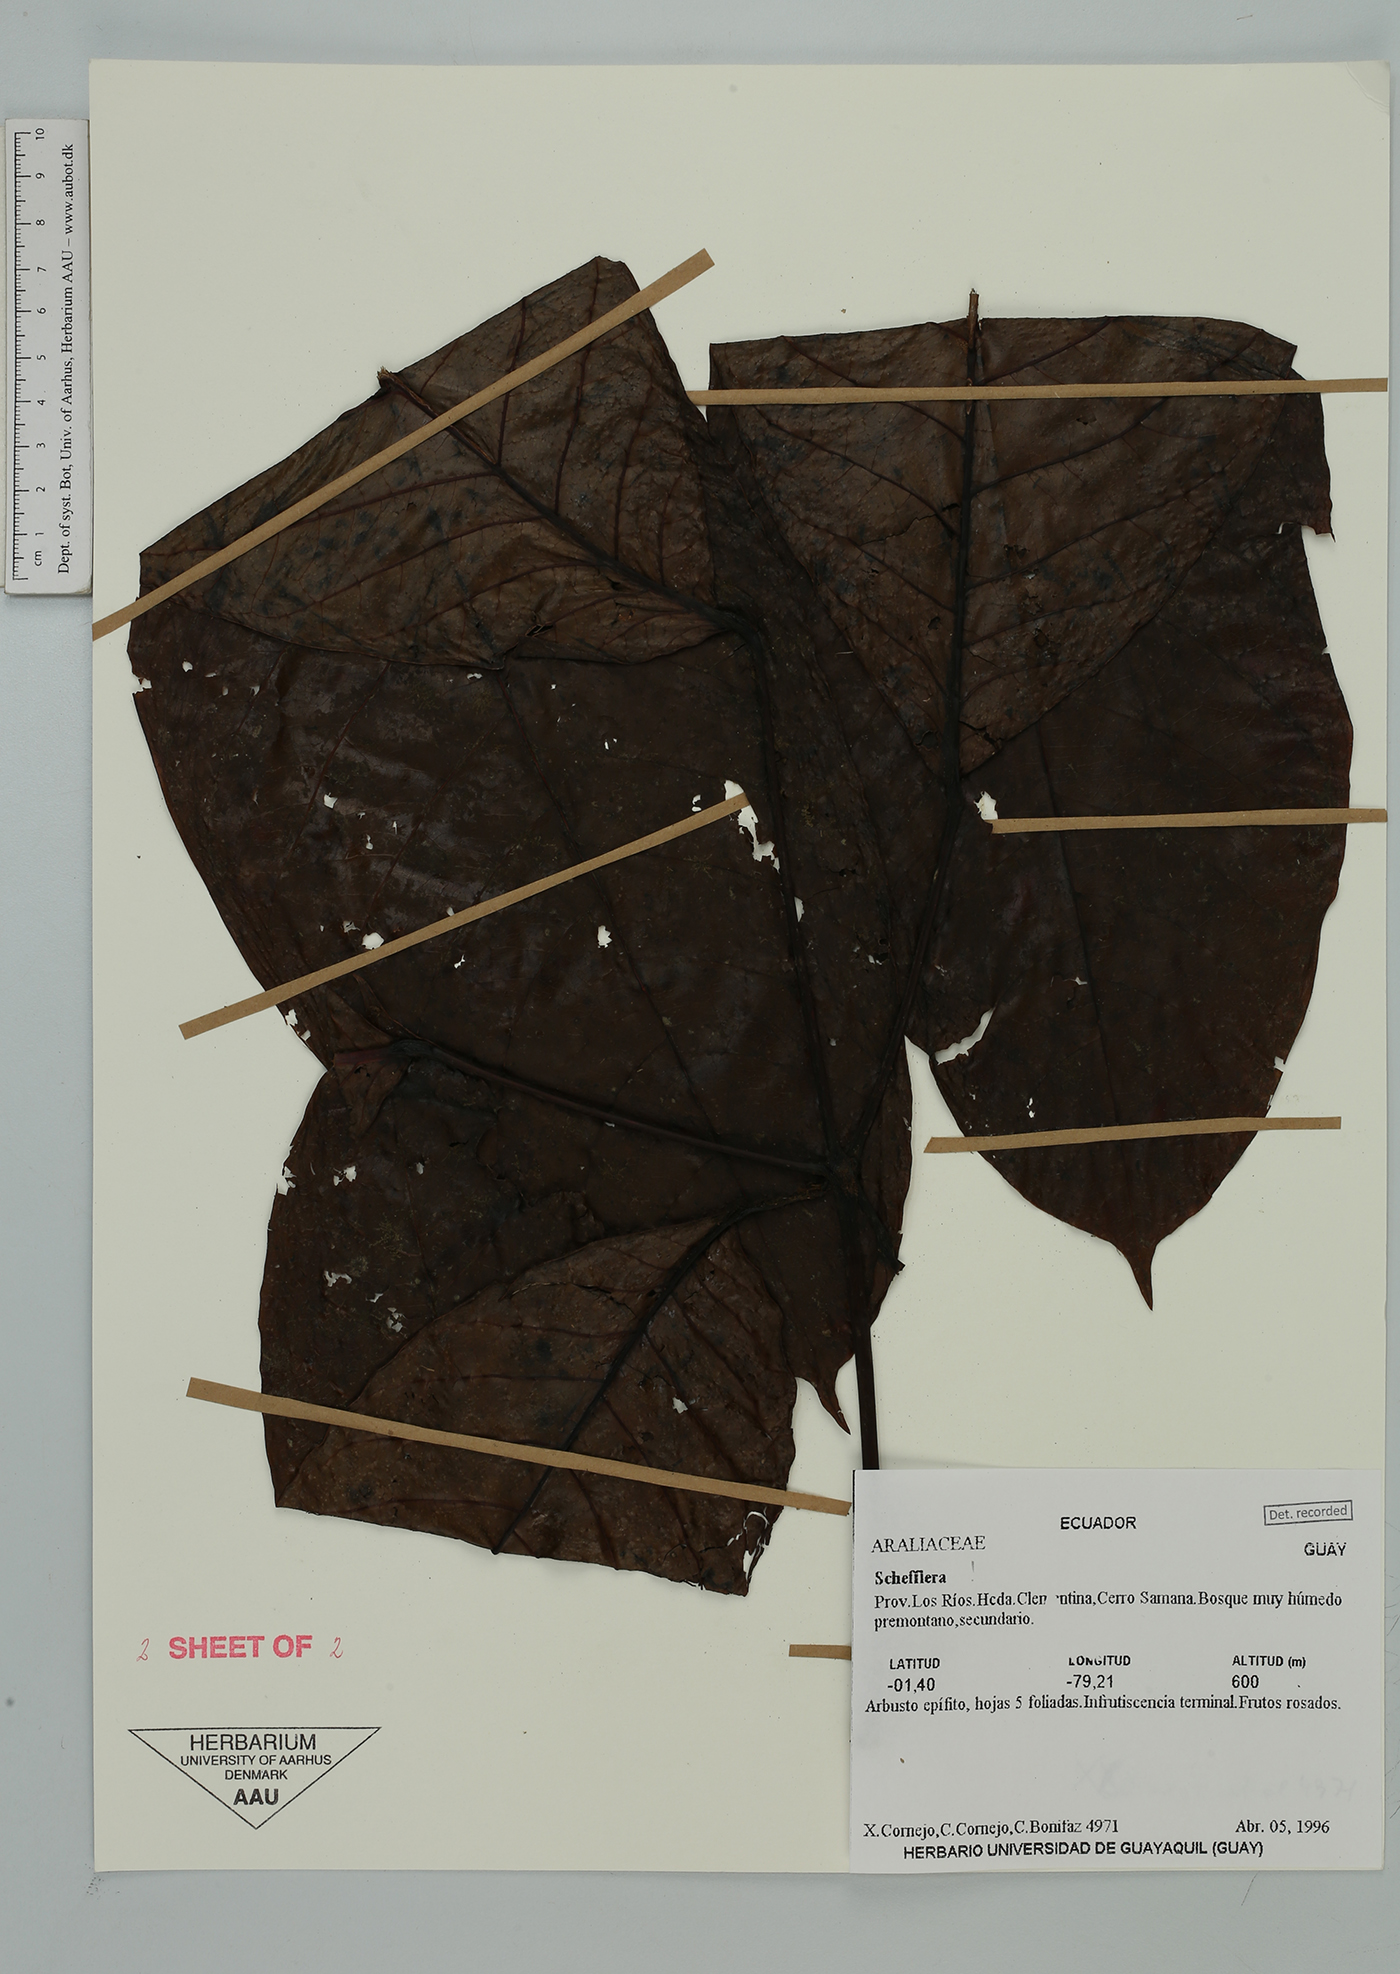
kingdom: Plantae
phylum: Tracheophyta
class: Magnoliopsida
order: Apiales
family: Araliaceae
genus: Sciodaphyllum
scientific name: Sciodaphyllum
